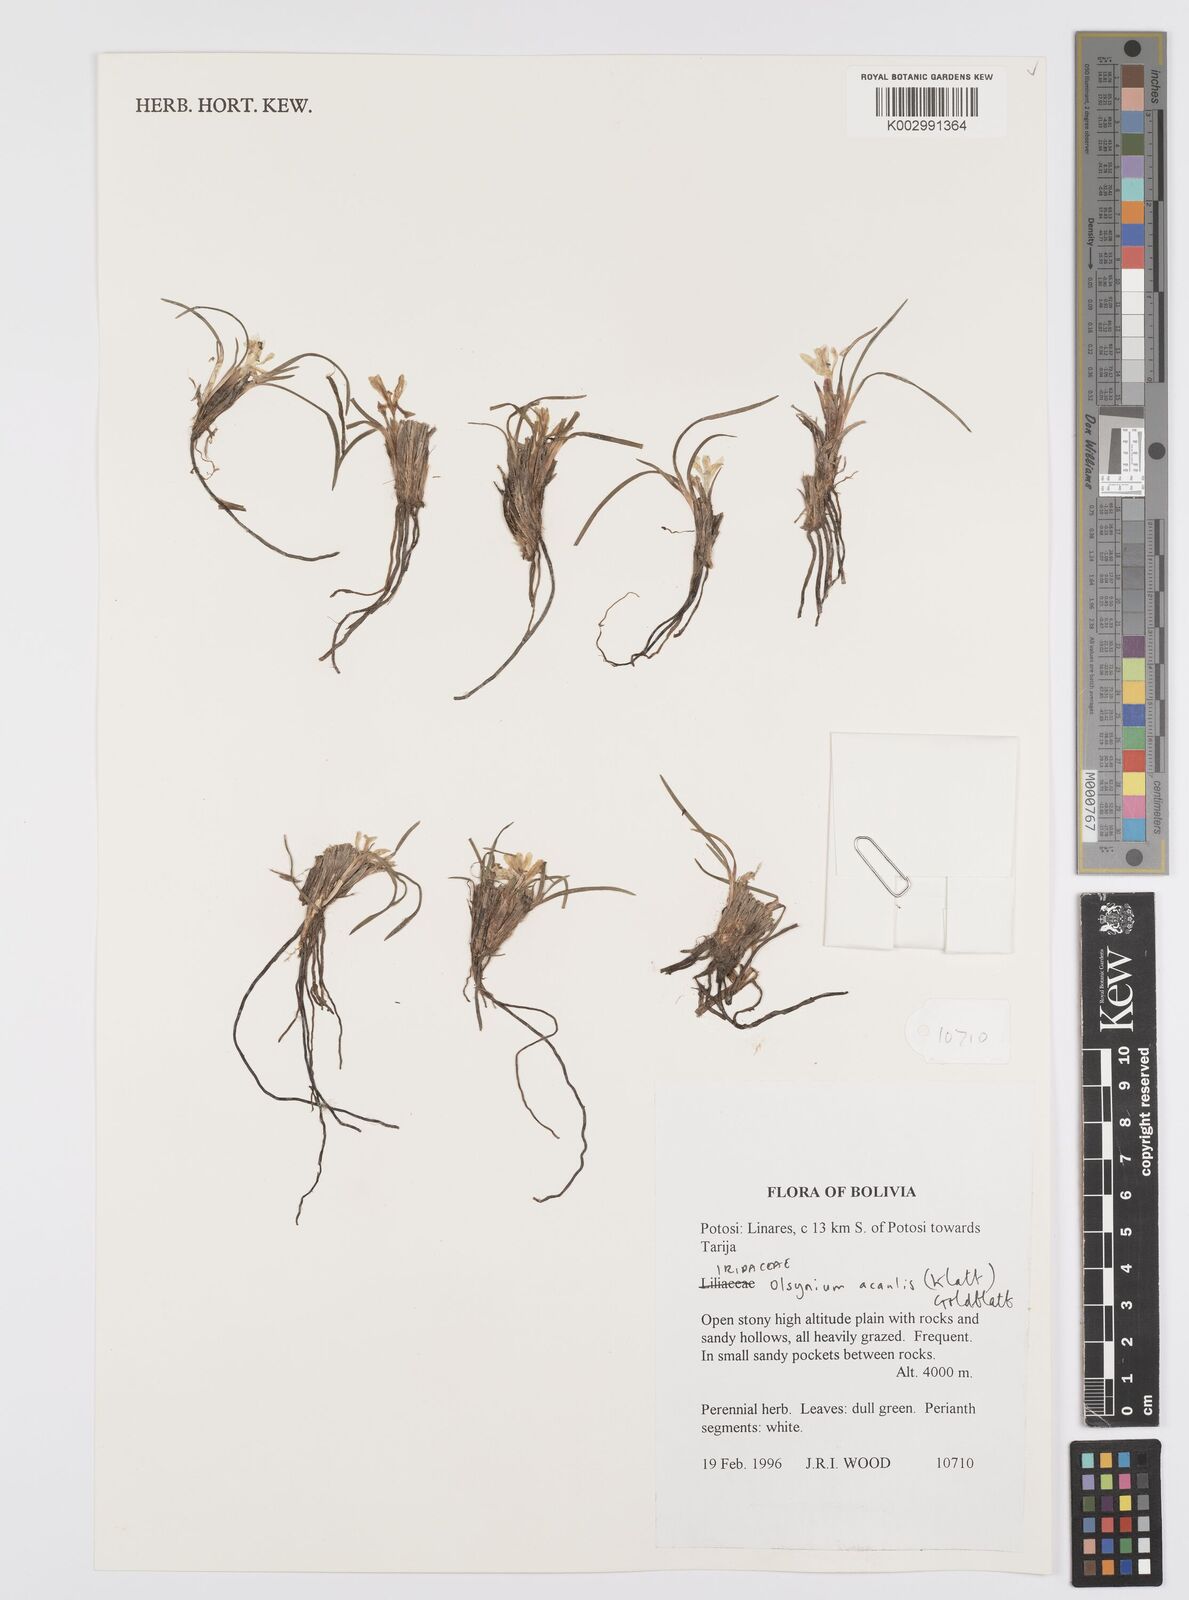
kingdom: Plantae
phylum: Tracheophyta
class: Liliopsida
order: Asparagales
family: Iridaceae
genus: Olsynium
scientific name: Olsynium acaule
